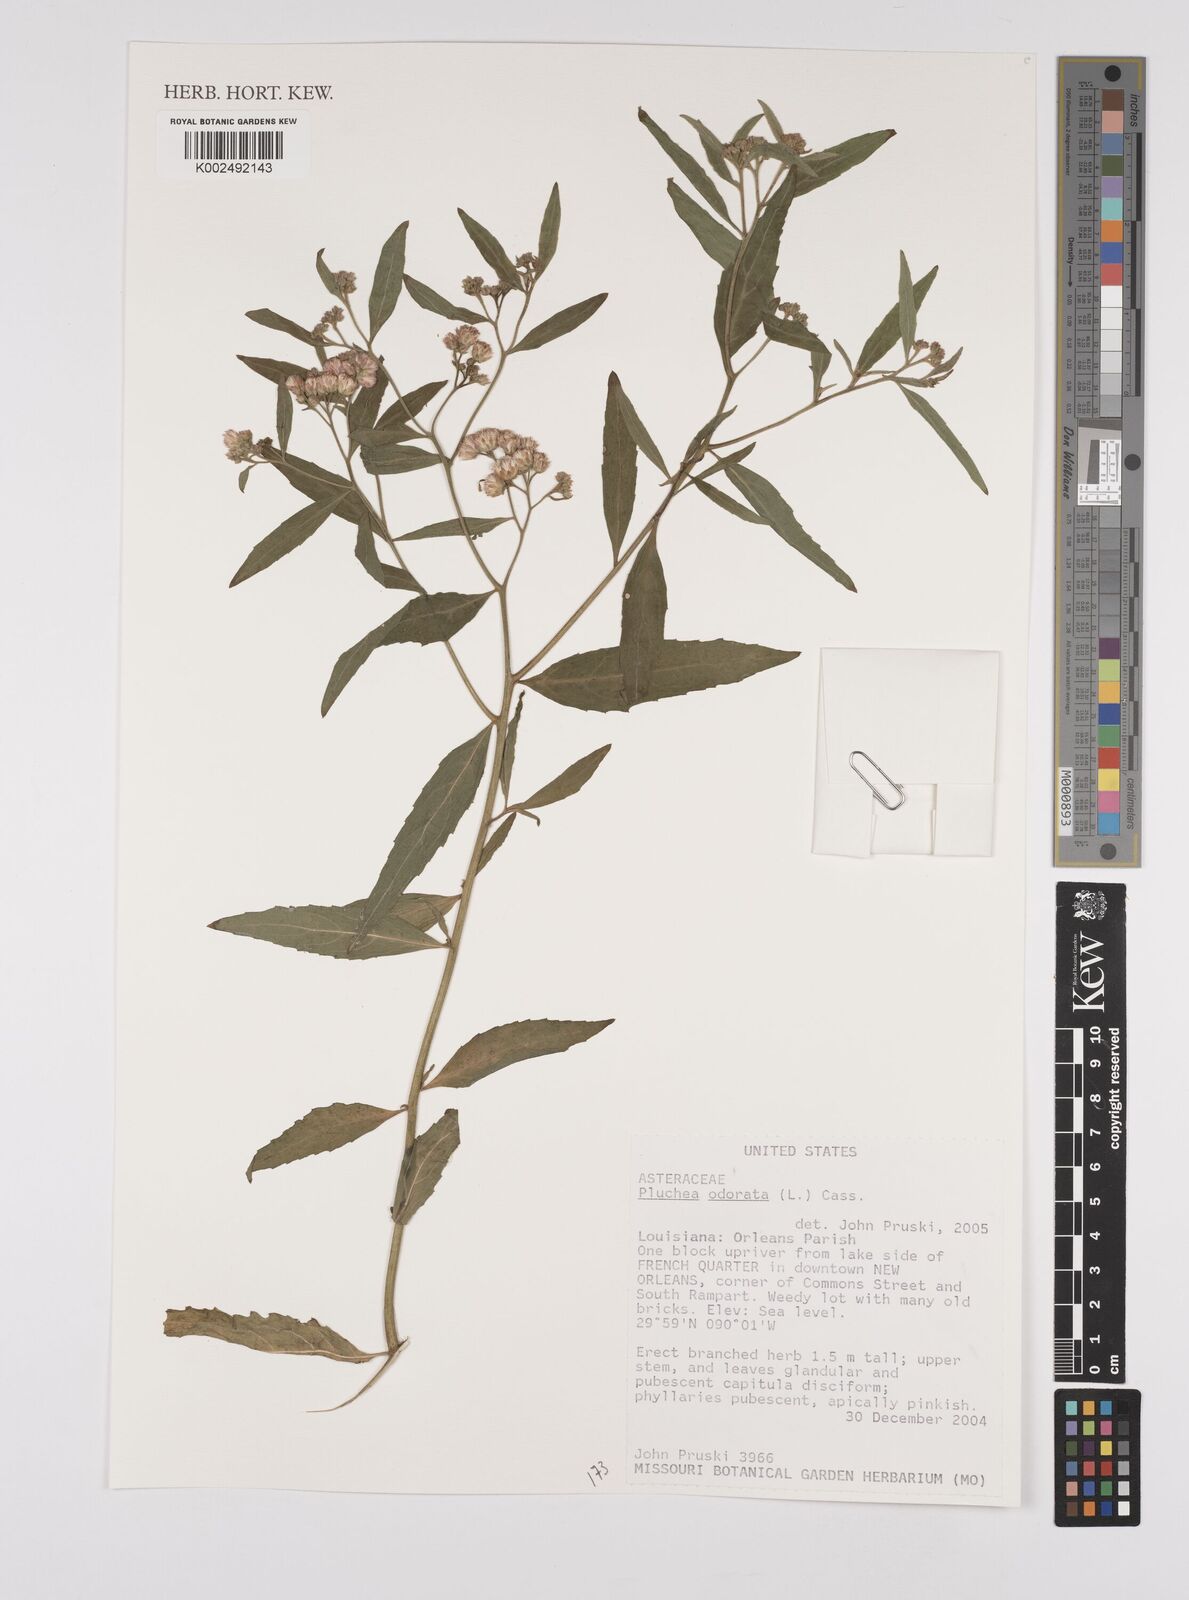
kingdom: Plantae
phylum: Tracheophyta
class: Magnoliopsida
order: Asterales
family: Asteraceae
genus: Pluchea
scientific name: Pluchea odorata
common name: Saltmarsh fleabane
